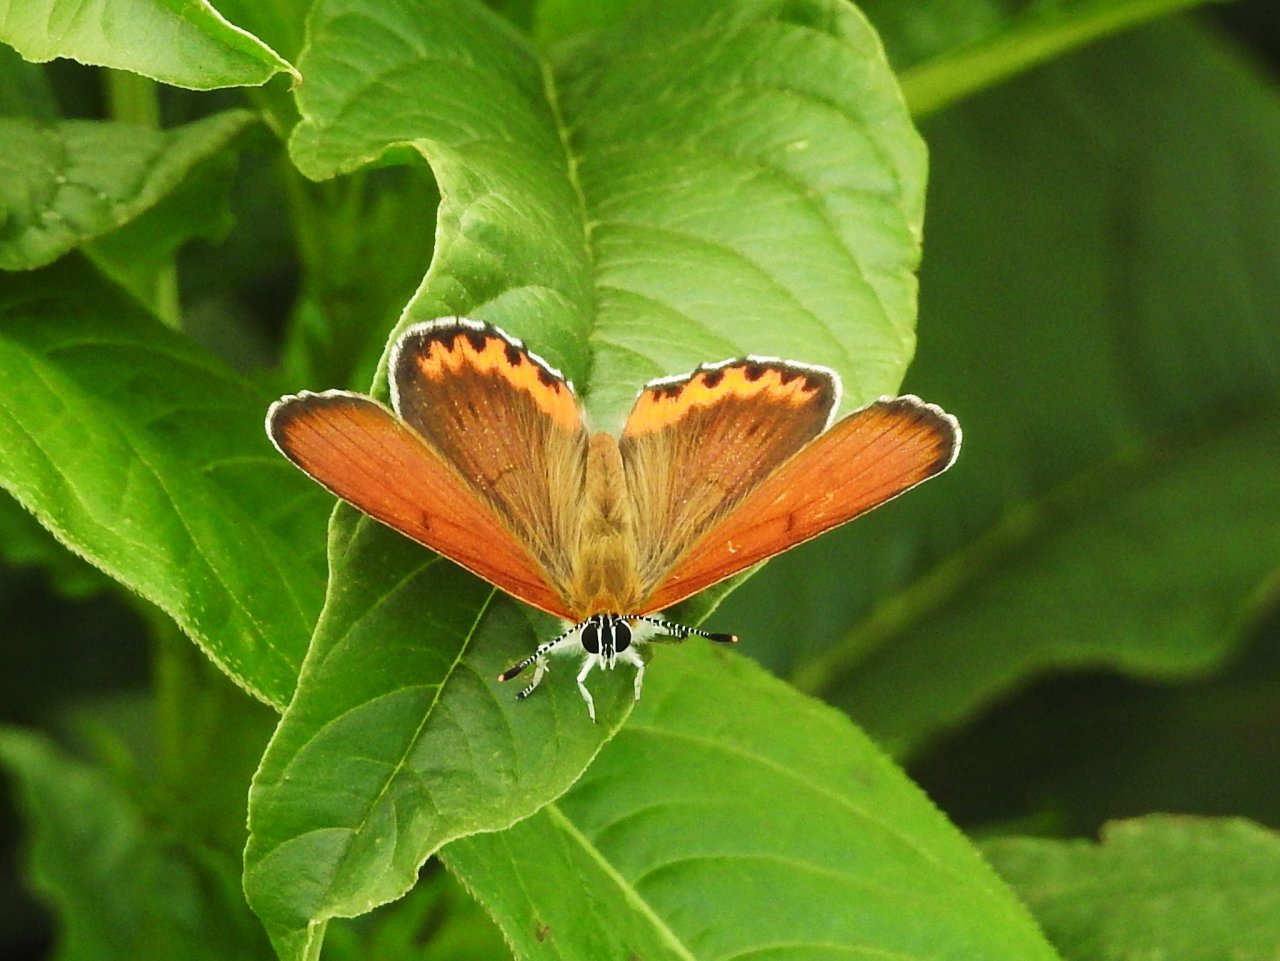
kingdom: Animalia
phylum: Arthropoda
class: Insecta
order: Lepidoptera
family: Sesiidae
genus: Sesia
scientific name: Sesia Lycaena hyllus
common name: Bronze Copper
